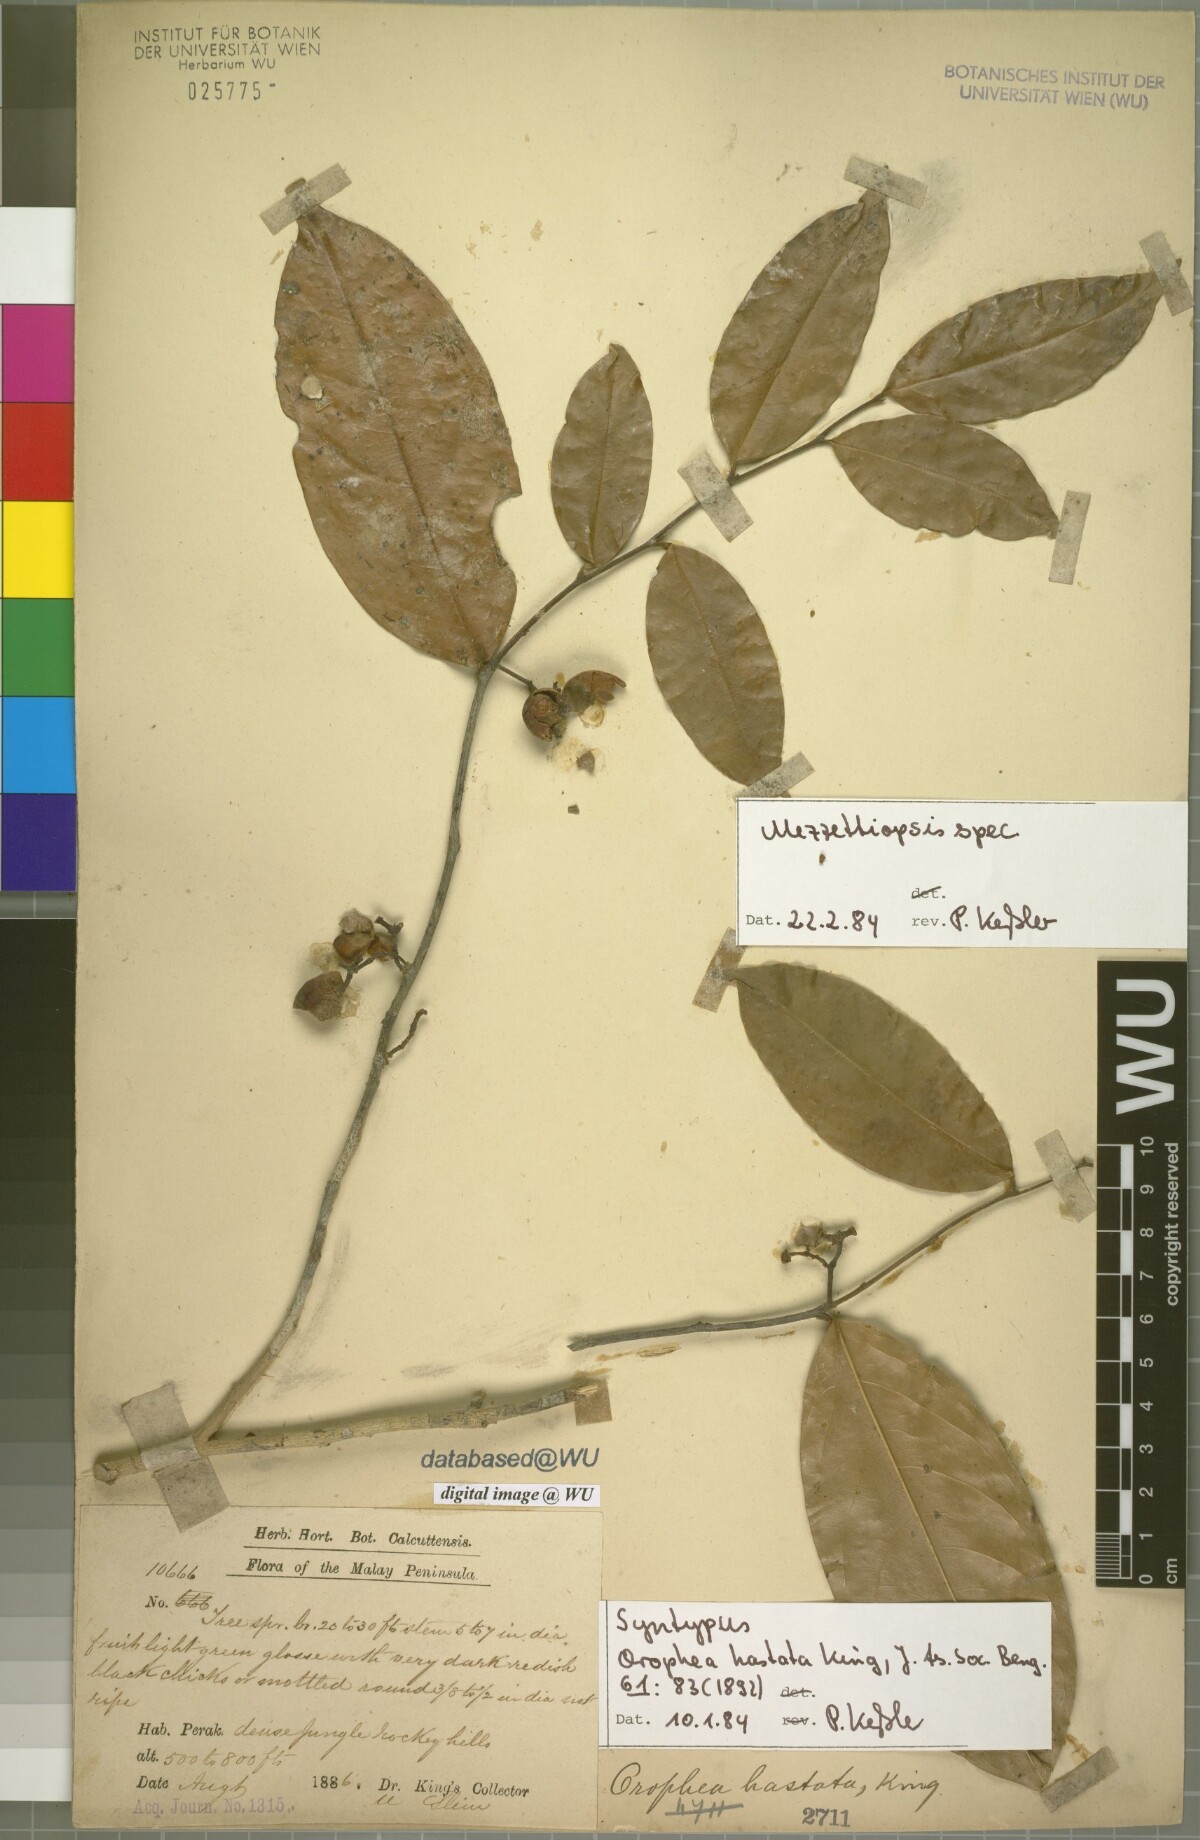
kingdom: Plantae
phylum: Tracheophyta
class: Magnoliopsida
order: Magnoliales
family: Annonaceae
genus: Orophea
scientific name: Orophea hastata
